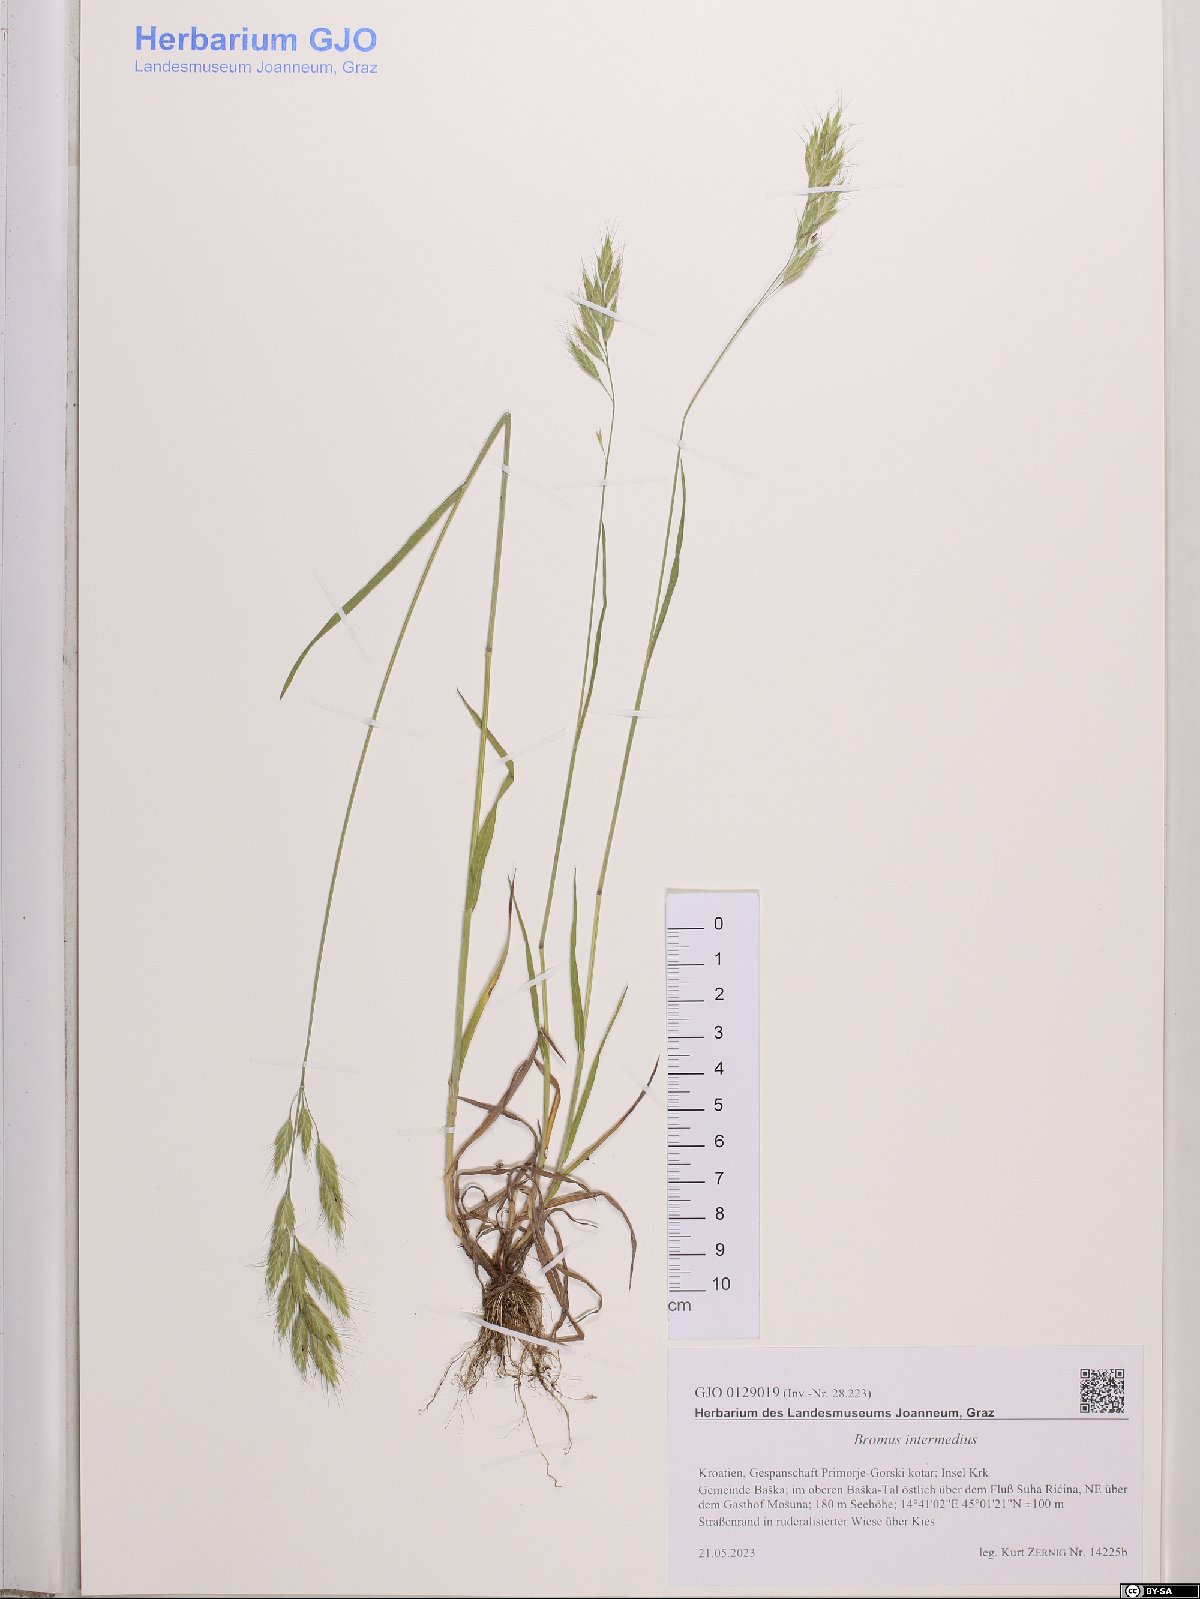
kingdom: Plantae
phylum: Tracheophyta
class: Liliopsida
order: Poales
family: Poaceae
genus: Bromus
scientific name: Bromus intermedius
